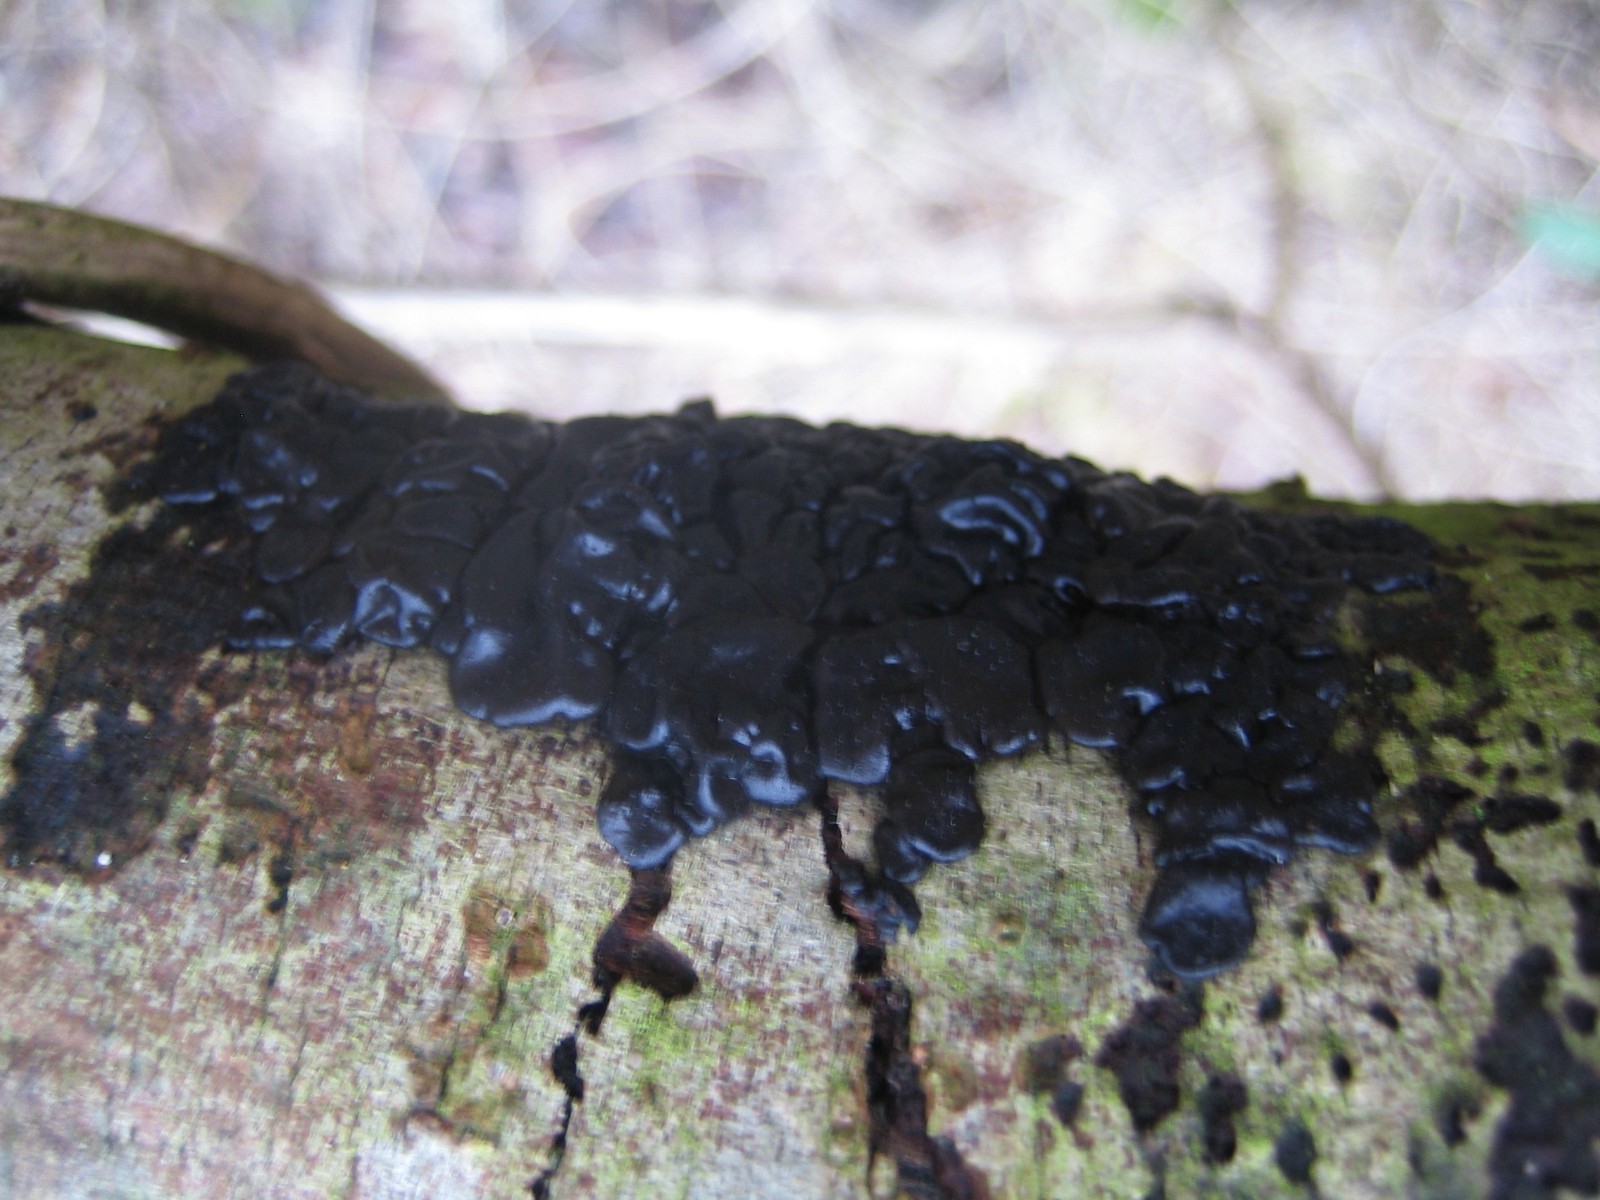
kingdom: Fungi
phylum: Basidiomycota
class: Agaricomycetes
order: Auriculariales
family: Auriculariaceae
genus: Exidia
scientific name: Exidia nigricans
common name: almindelig bævretop
